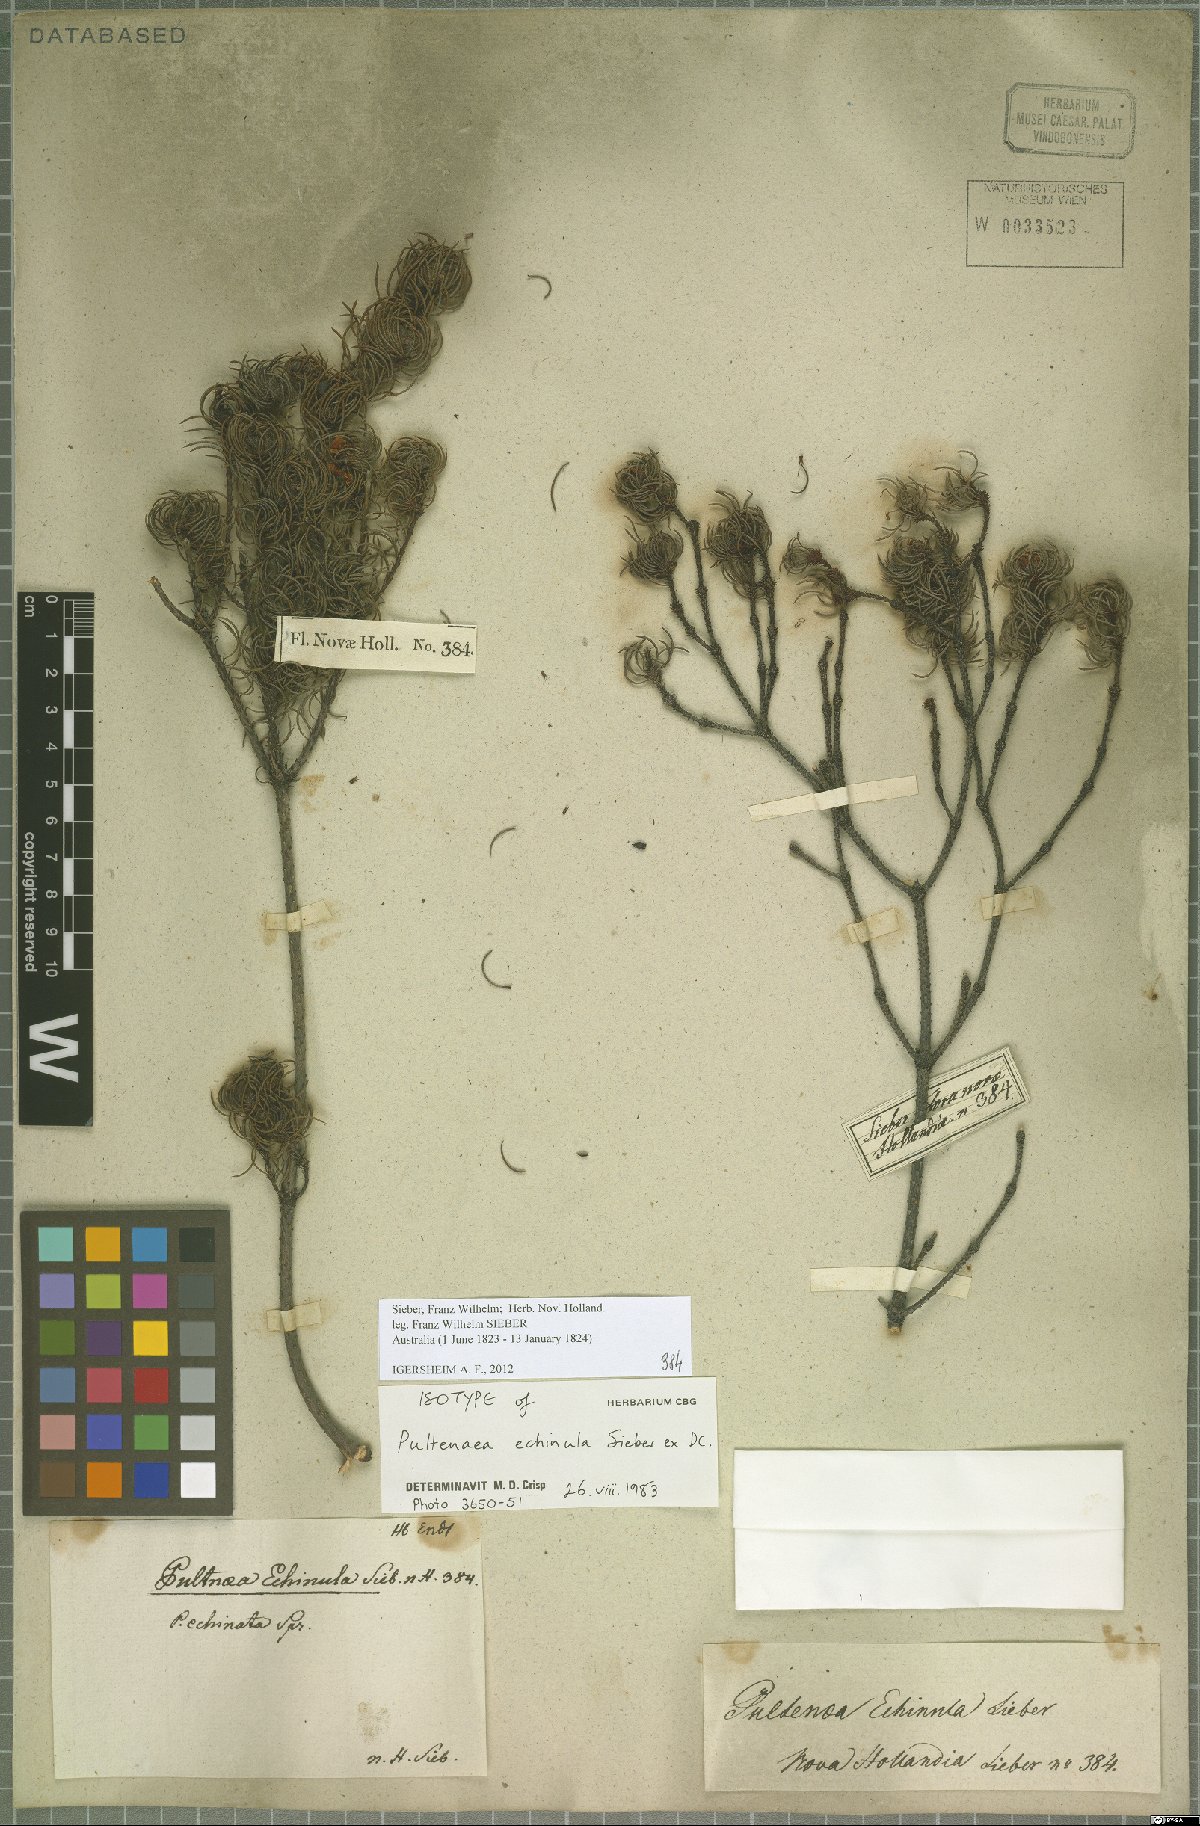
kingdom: Plantae
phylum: Tracheophyta
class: Magnoliopsida
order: Fabales
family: Fabaceae
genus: Pultenaea
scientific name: Pultenaea echinula
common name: Curved bush-pea
